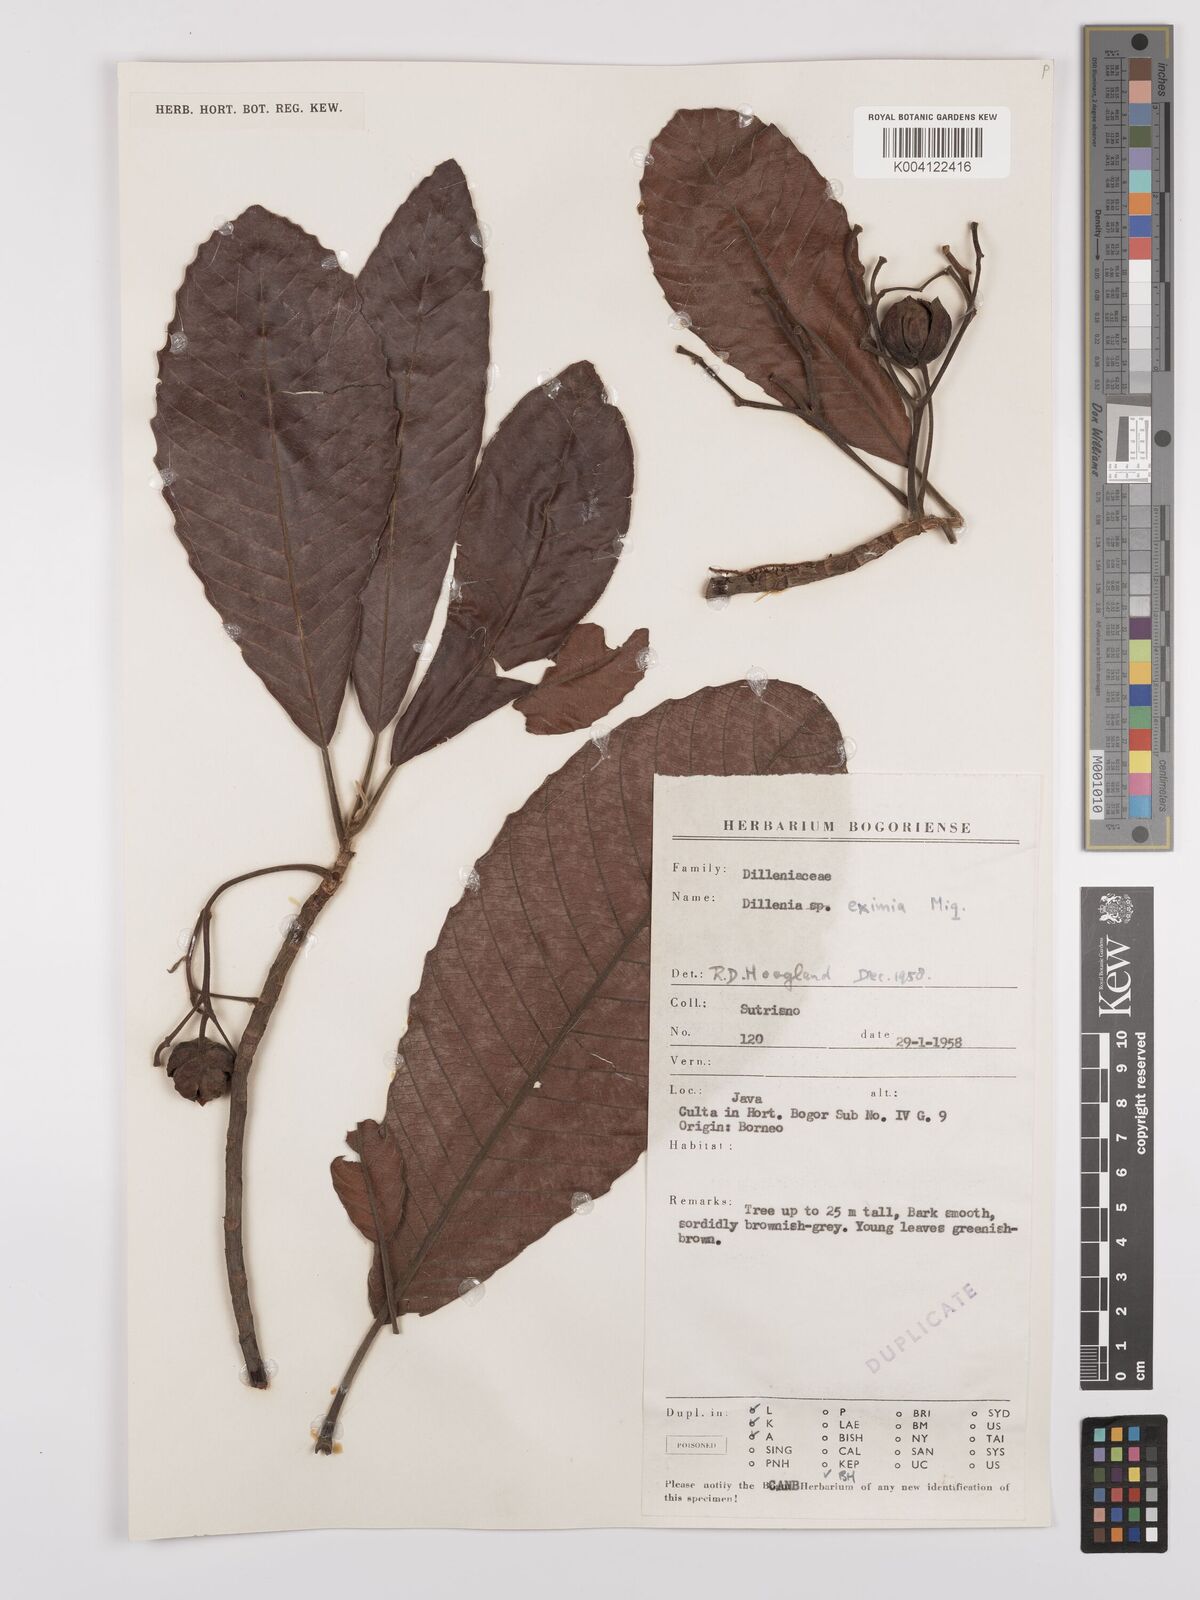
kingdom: Plantae
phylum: Tracheophyta
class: Magnoliopsida
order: Dilleniales
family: Dilleniaceae
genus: Dillenia
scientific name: Dillenia grandifolia
